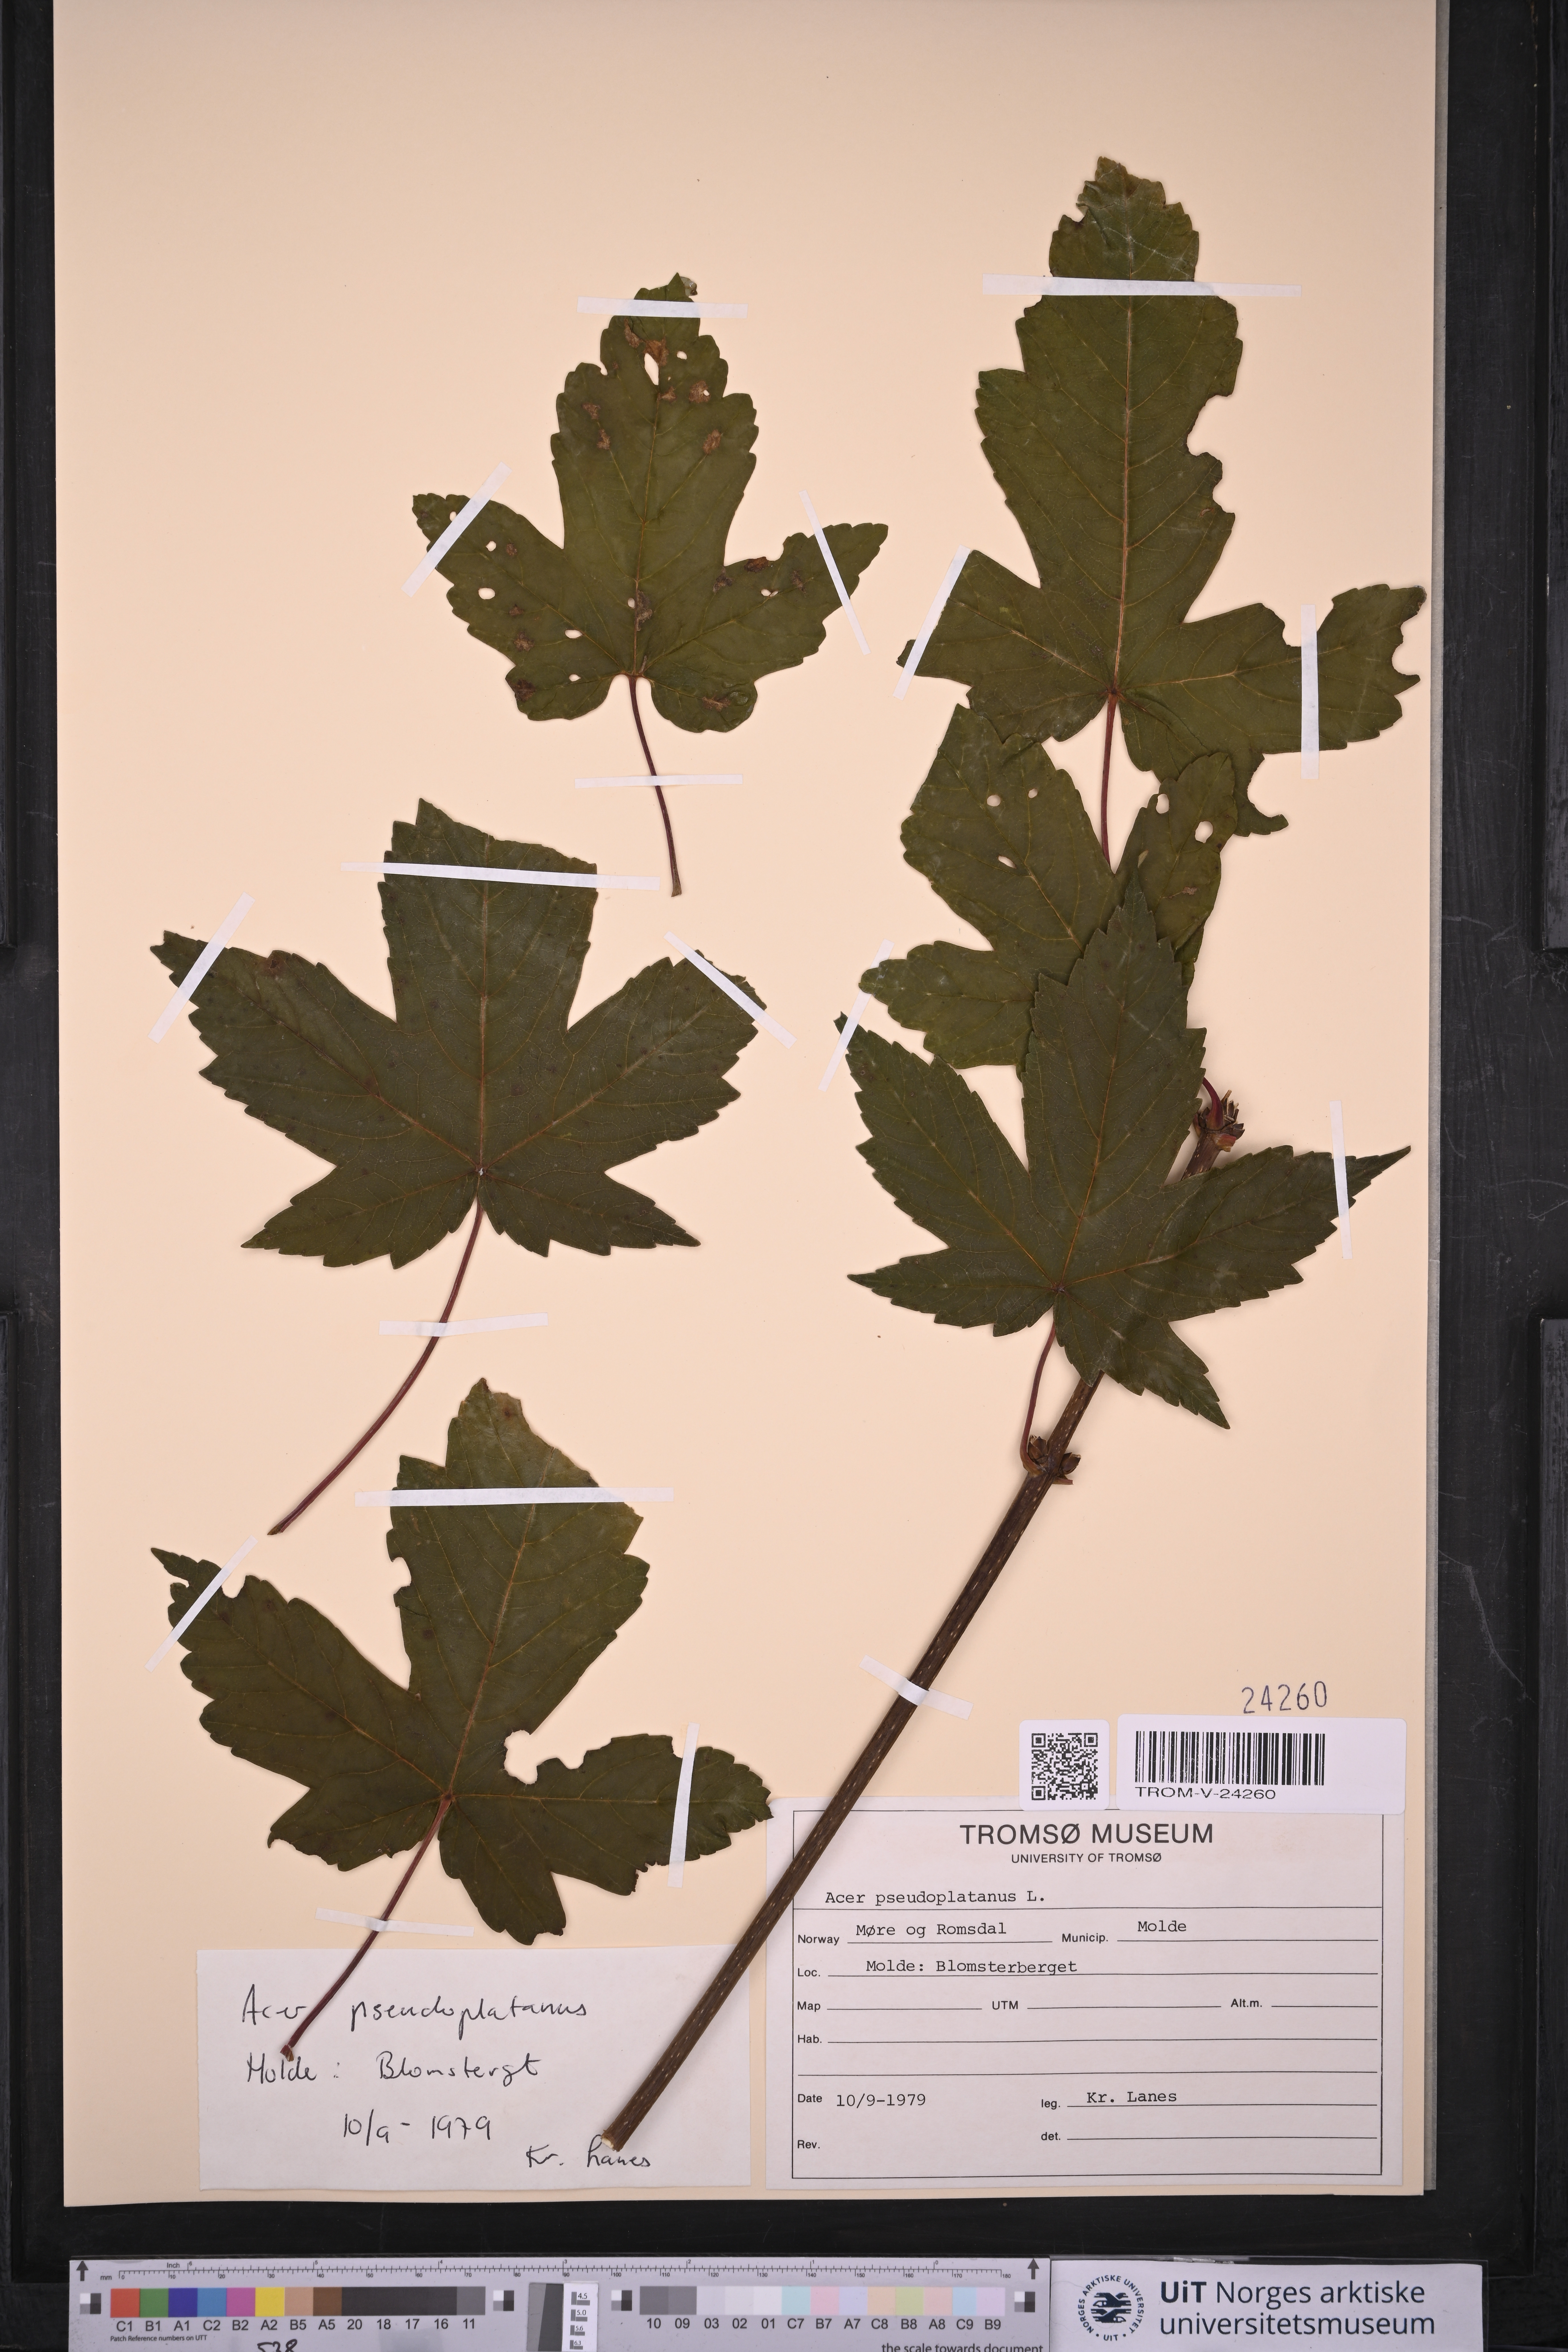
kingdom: Plantae
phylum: Tracheophyta
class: Magnoliopsida
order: Sapindales
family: Sapindaceae
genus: Acer
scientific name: Acer pseudoplatanus
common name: Sycamore
